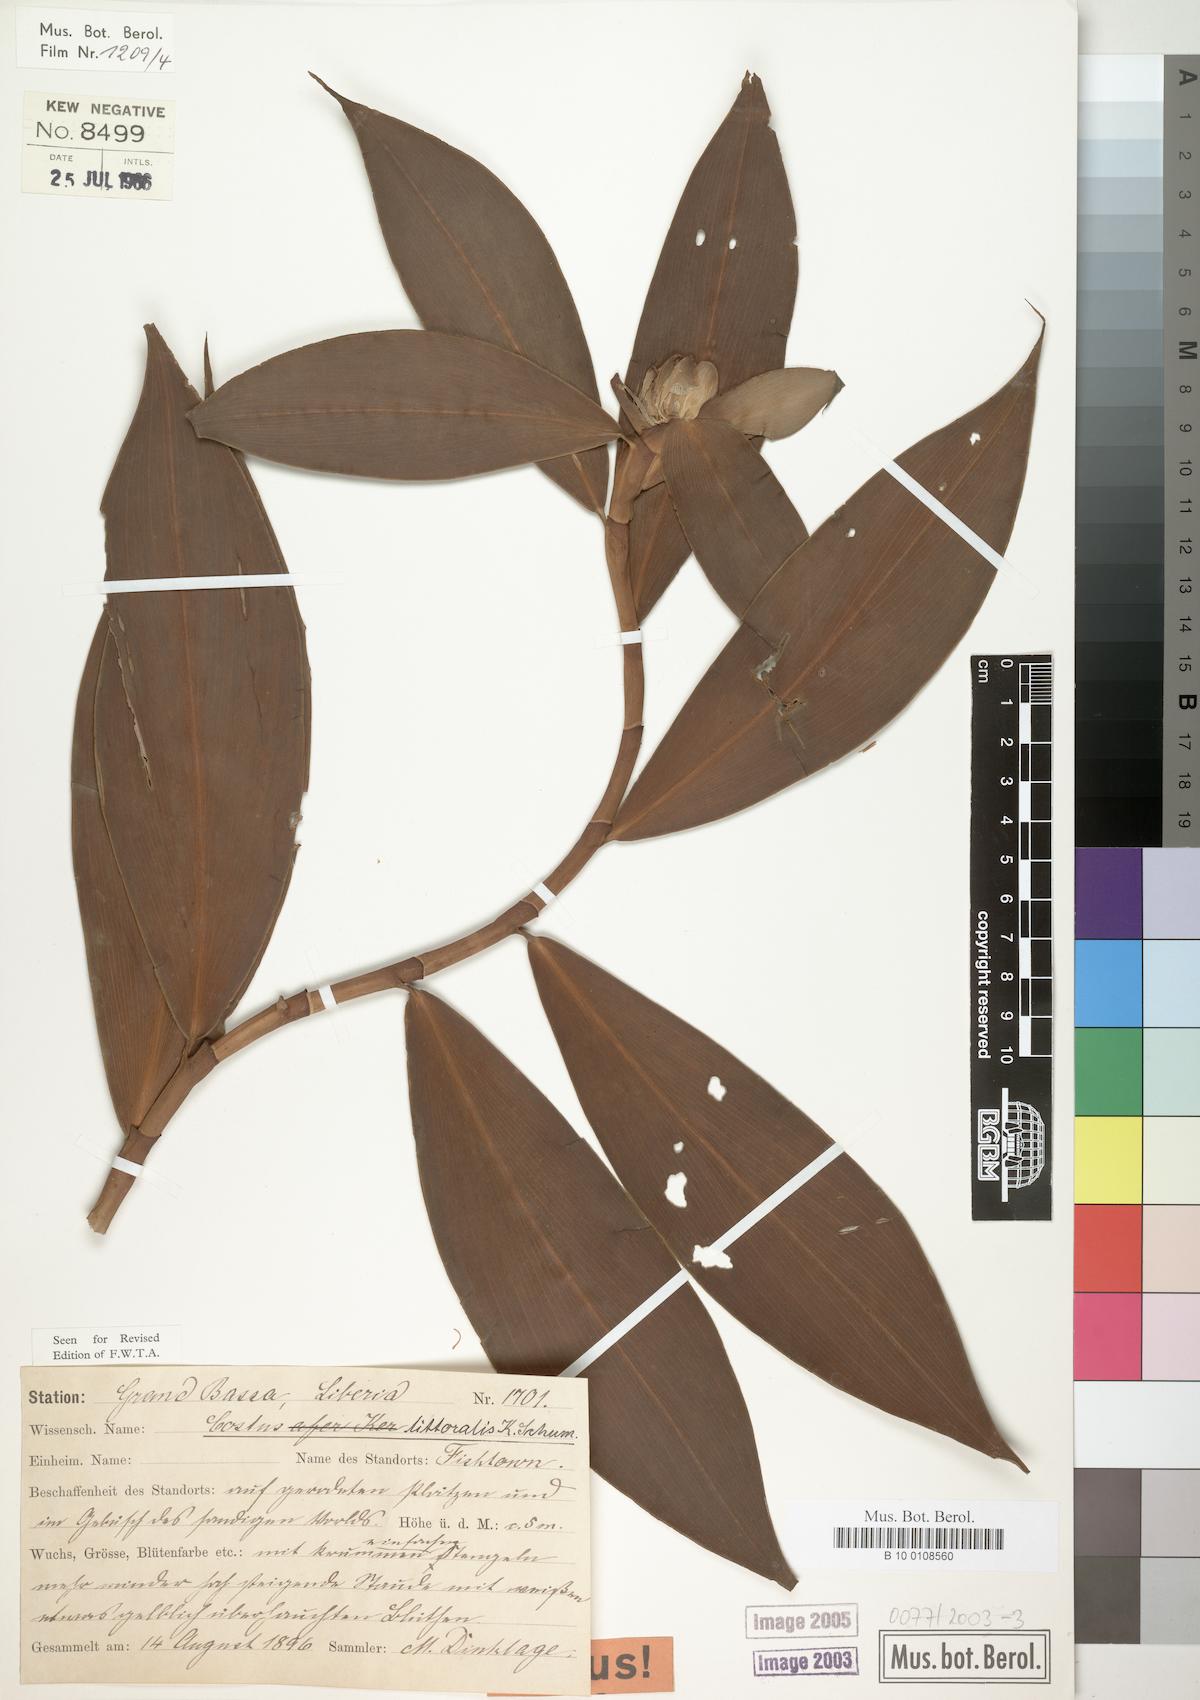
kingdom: Plantae
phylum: Tracheophyta
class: Liliopsida
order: Zingiberales
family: Costaceae
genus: Costus
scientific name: Costus dubius
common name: Costus
